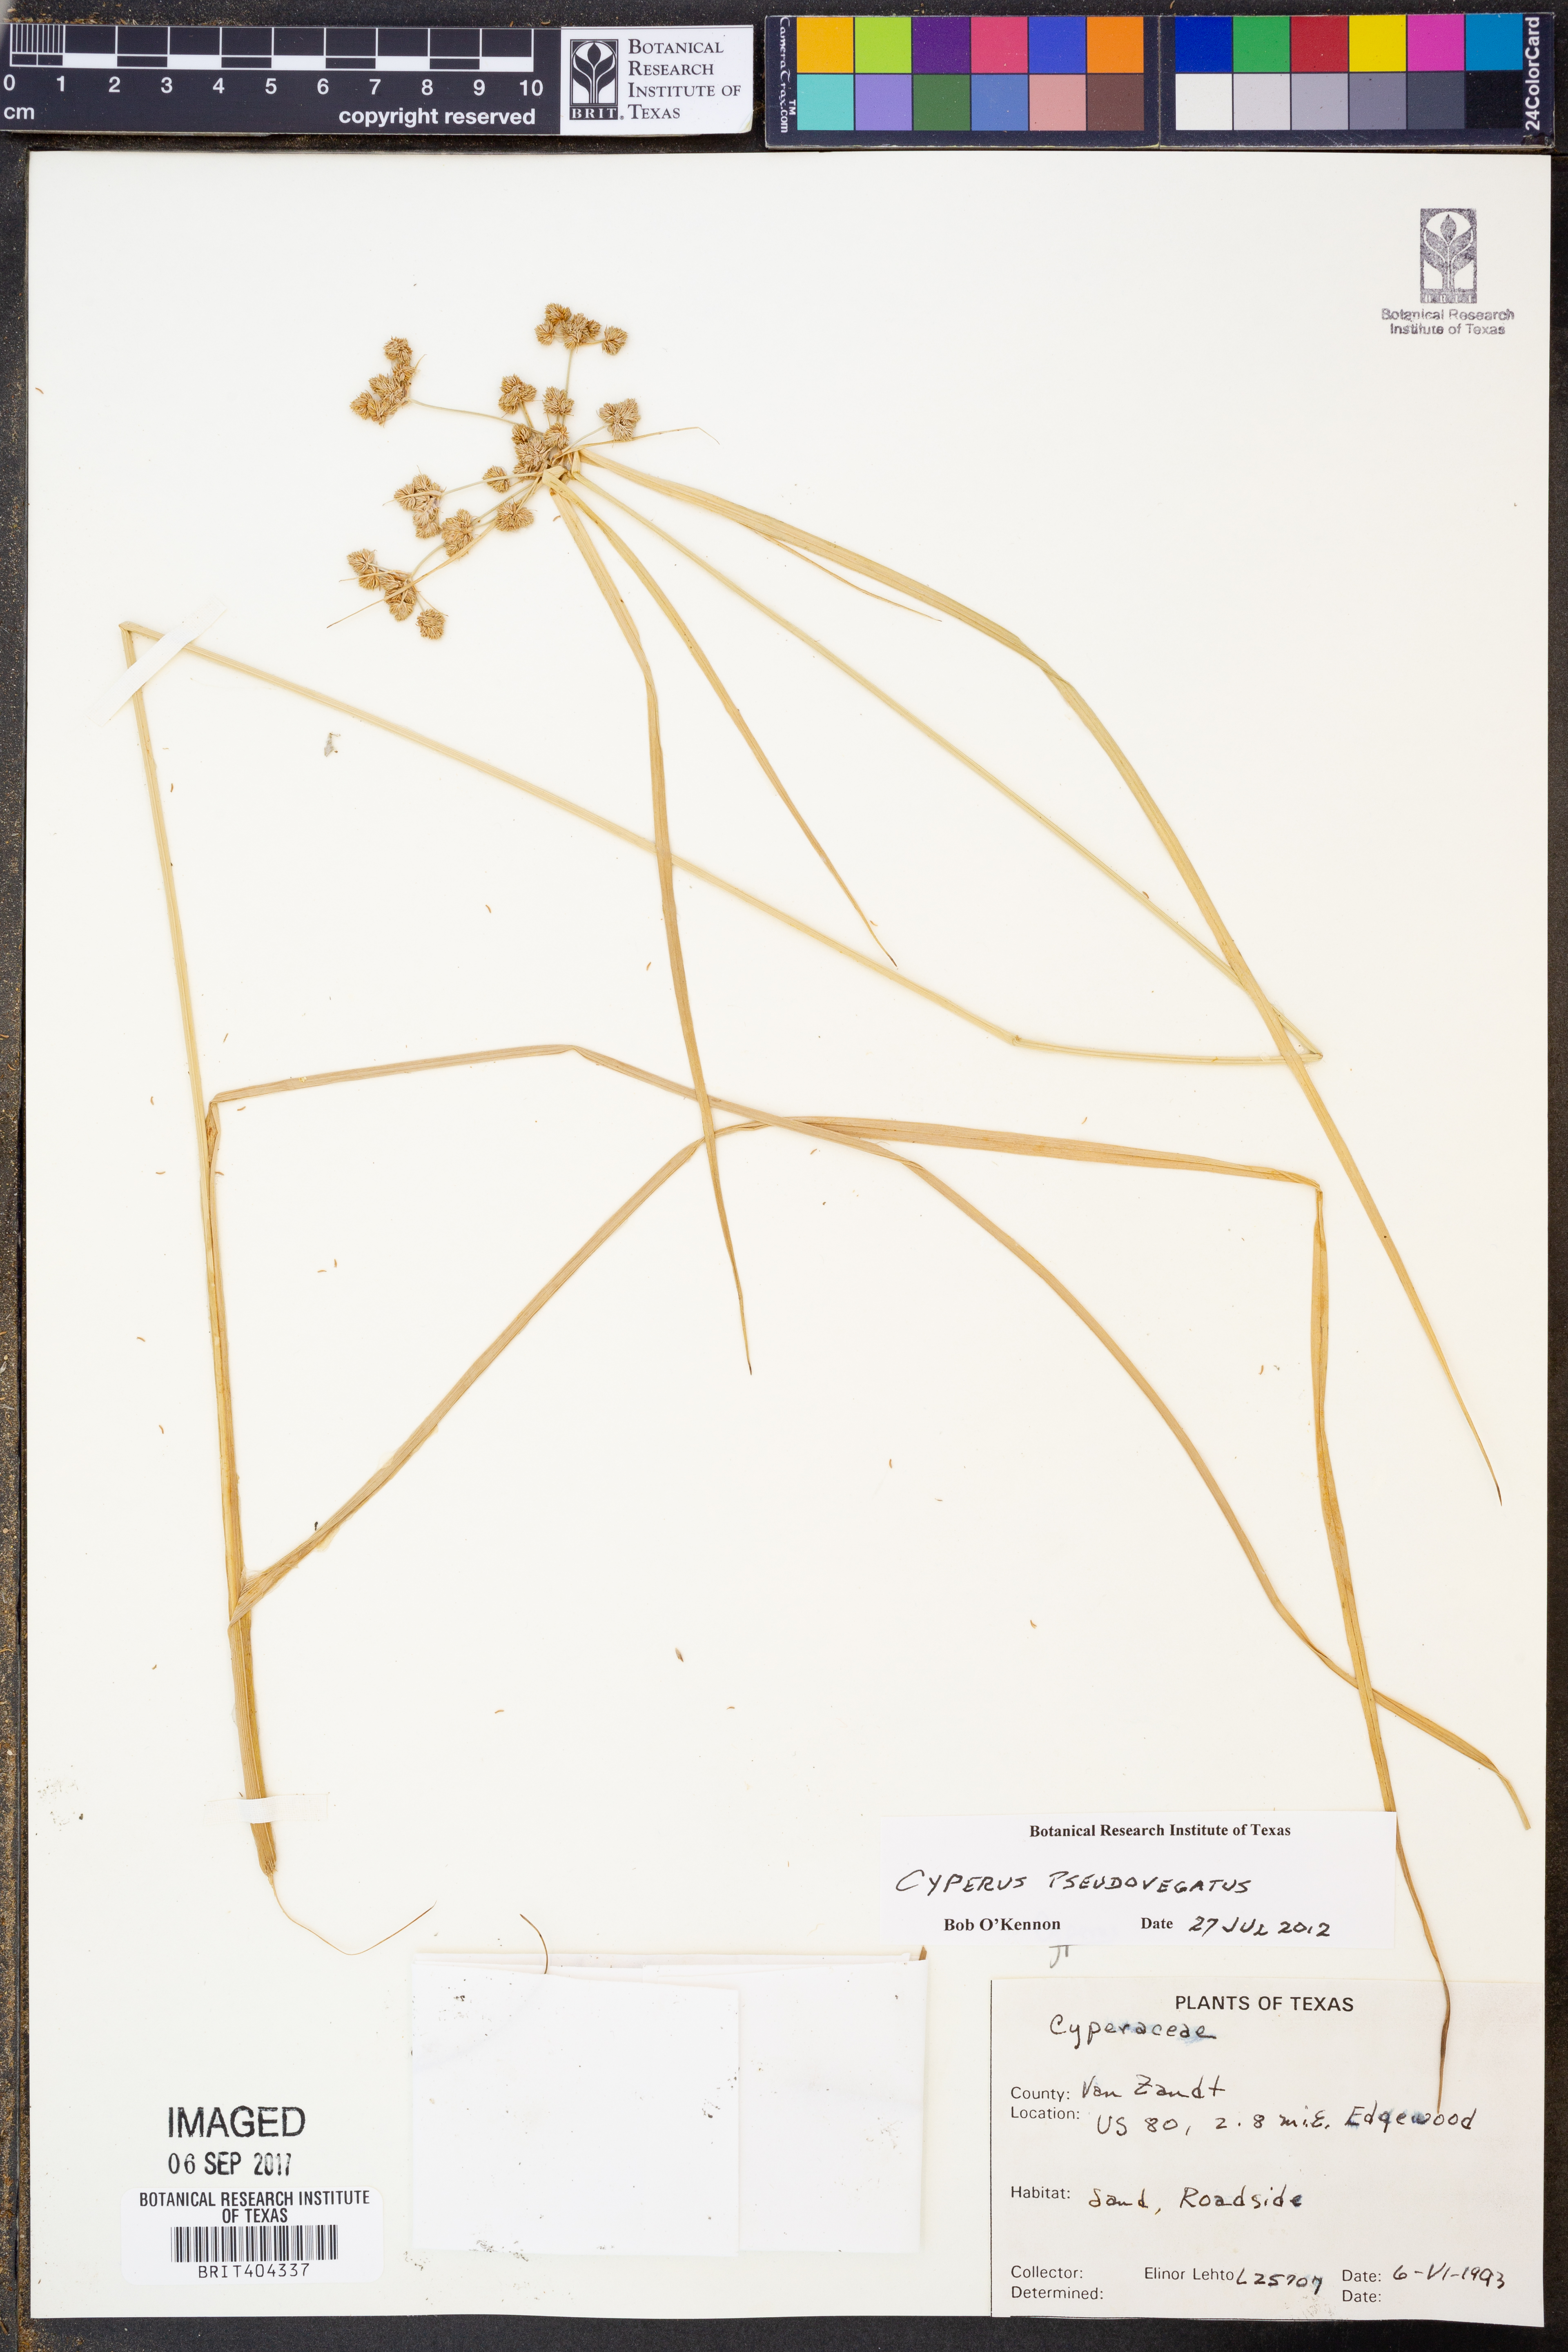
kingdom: Plantae
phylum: Tracheophyta
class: Liliopsida
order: Poales
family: Cyperaceae
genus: Cyperus
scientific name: Cyperus pseudovegetus
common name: Marsh flat sedge
